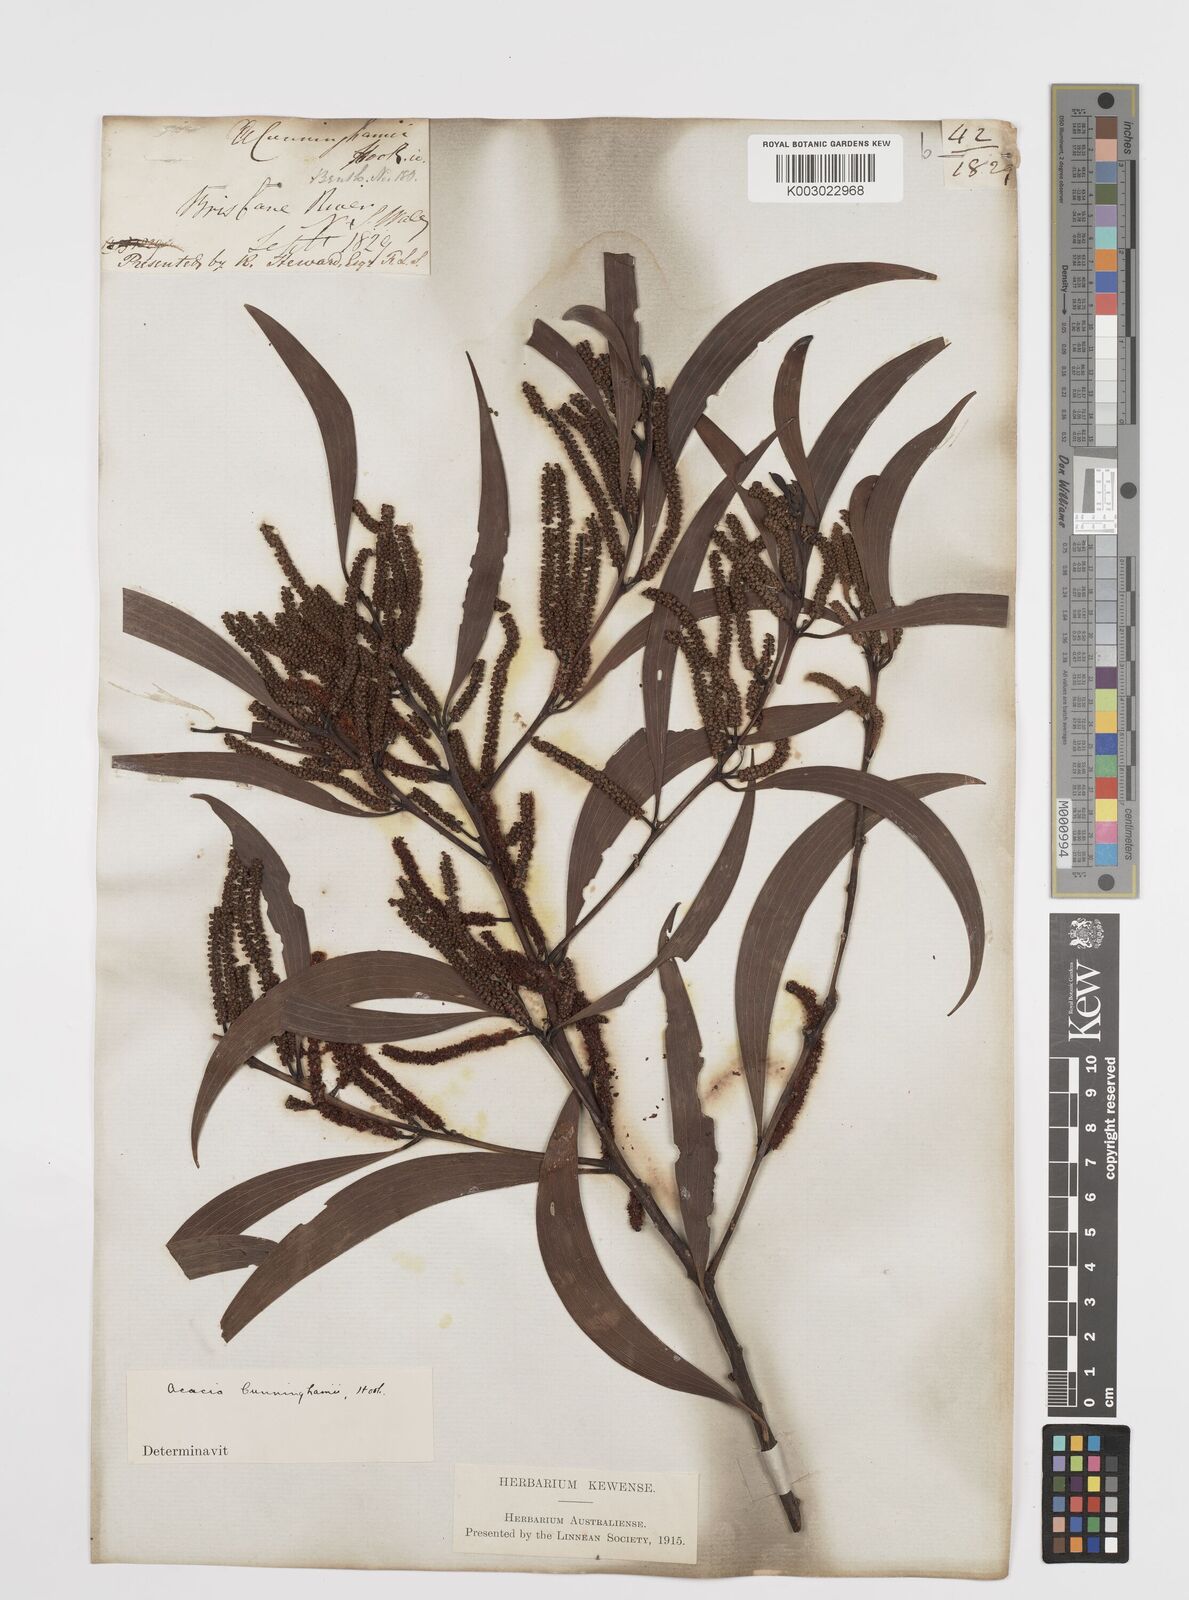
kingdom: Plantae
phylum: Tracheophyta
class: Magnoliopsida
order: Fabales
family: Fabaceae
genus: Acacia
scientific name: Acacia longispicata
